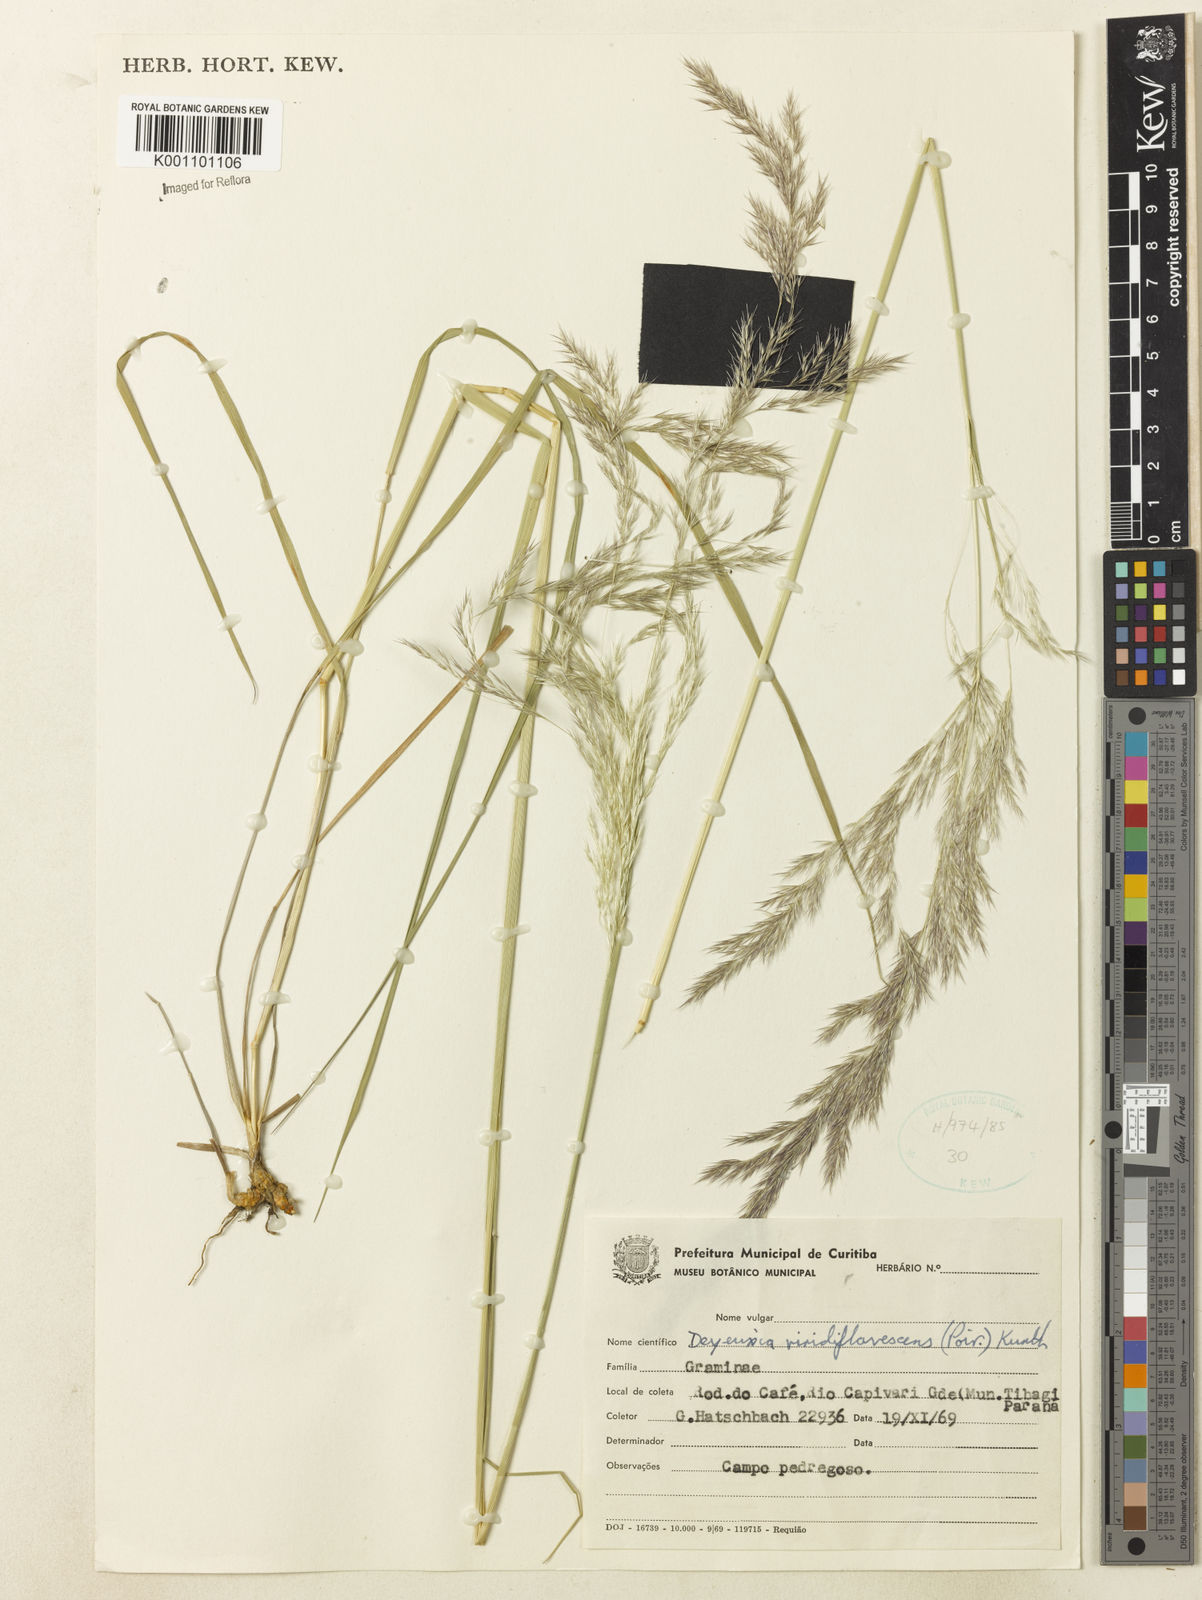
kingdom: Plantae
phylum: Tracheophyta
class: Liliopsida
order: Poales
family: Poaceae
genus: Cinnagrostis
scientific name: Cinnagrostis viridiflavescens
